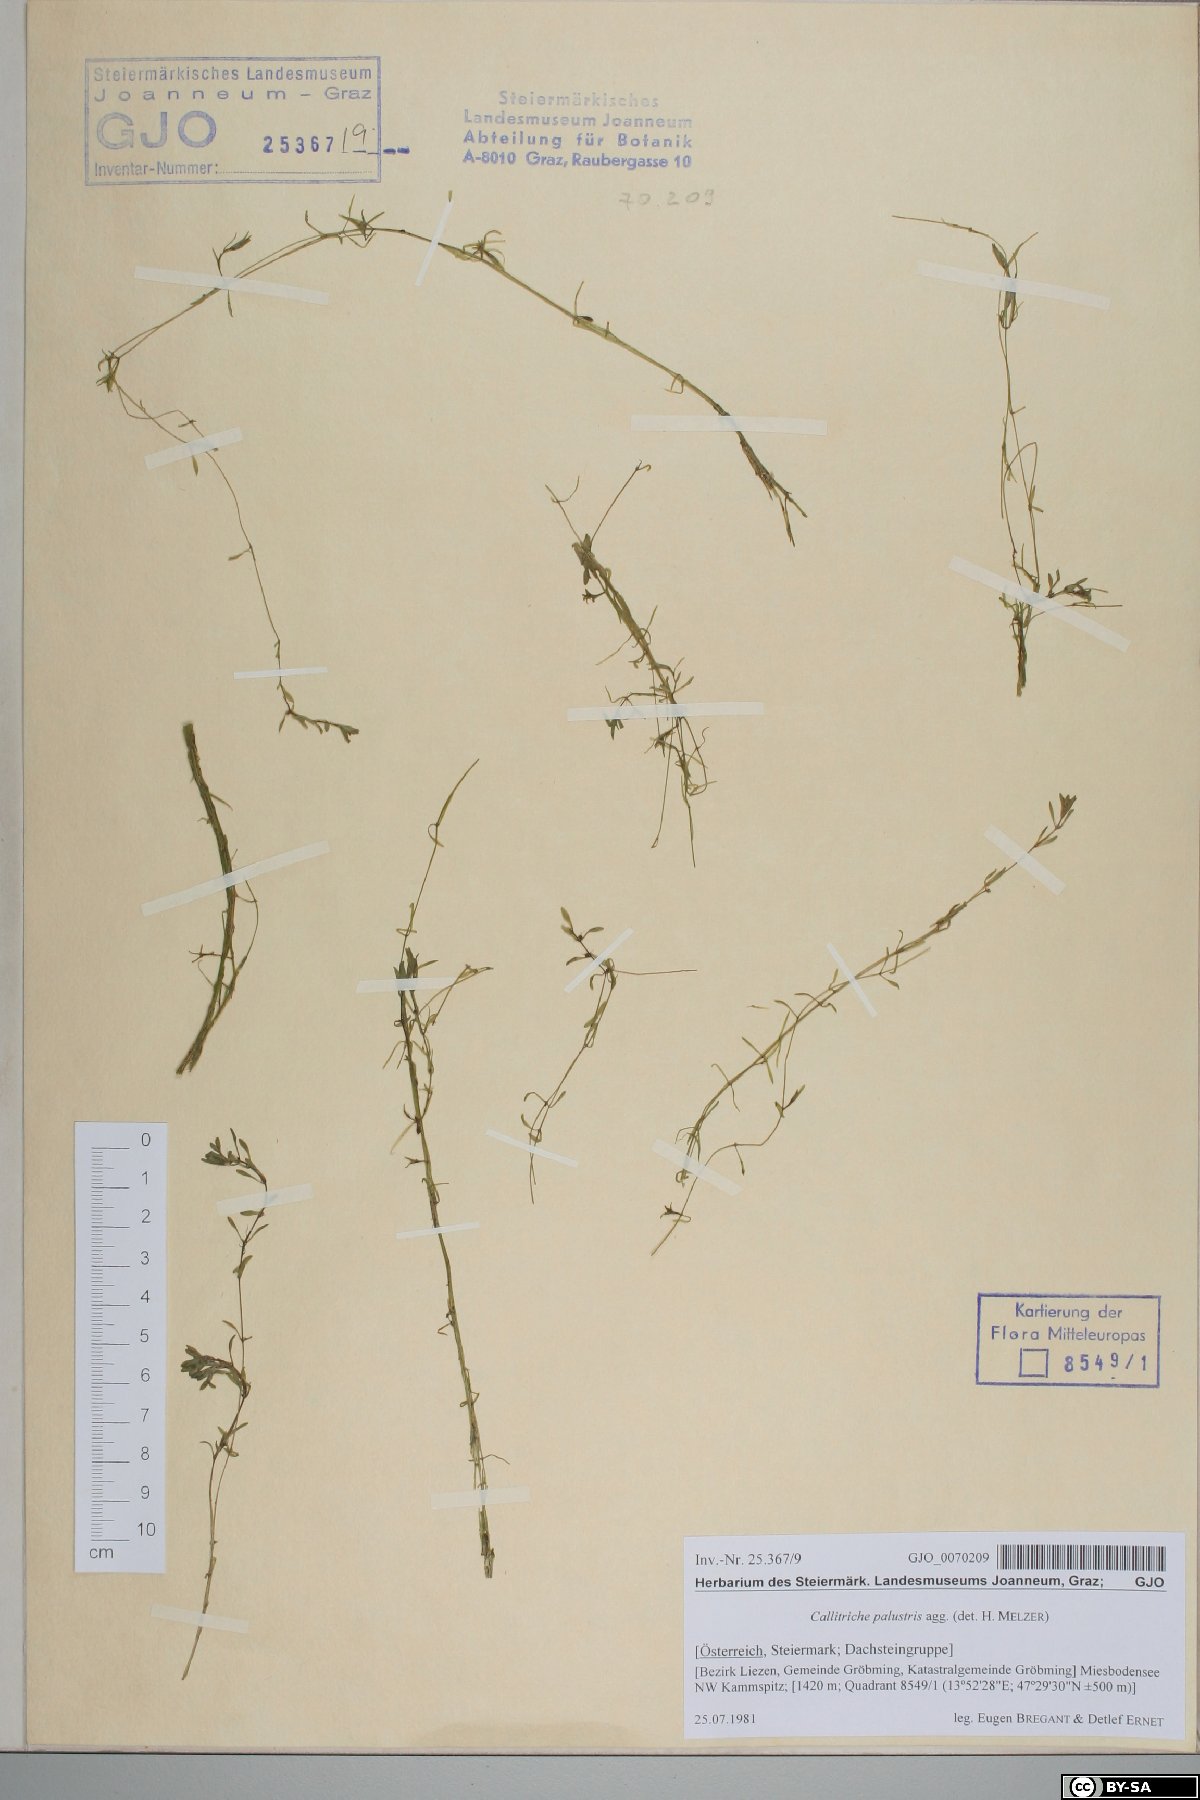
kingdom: Plantae
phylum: Tracheophyta
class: Magnoliopsida
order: Lamiales
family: Plantaginaceae
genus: Callitriche
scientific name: Callitriche palustris
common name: Spring water-starwort
